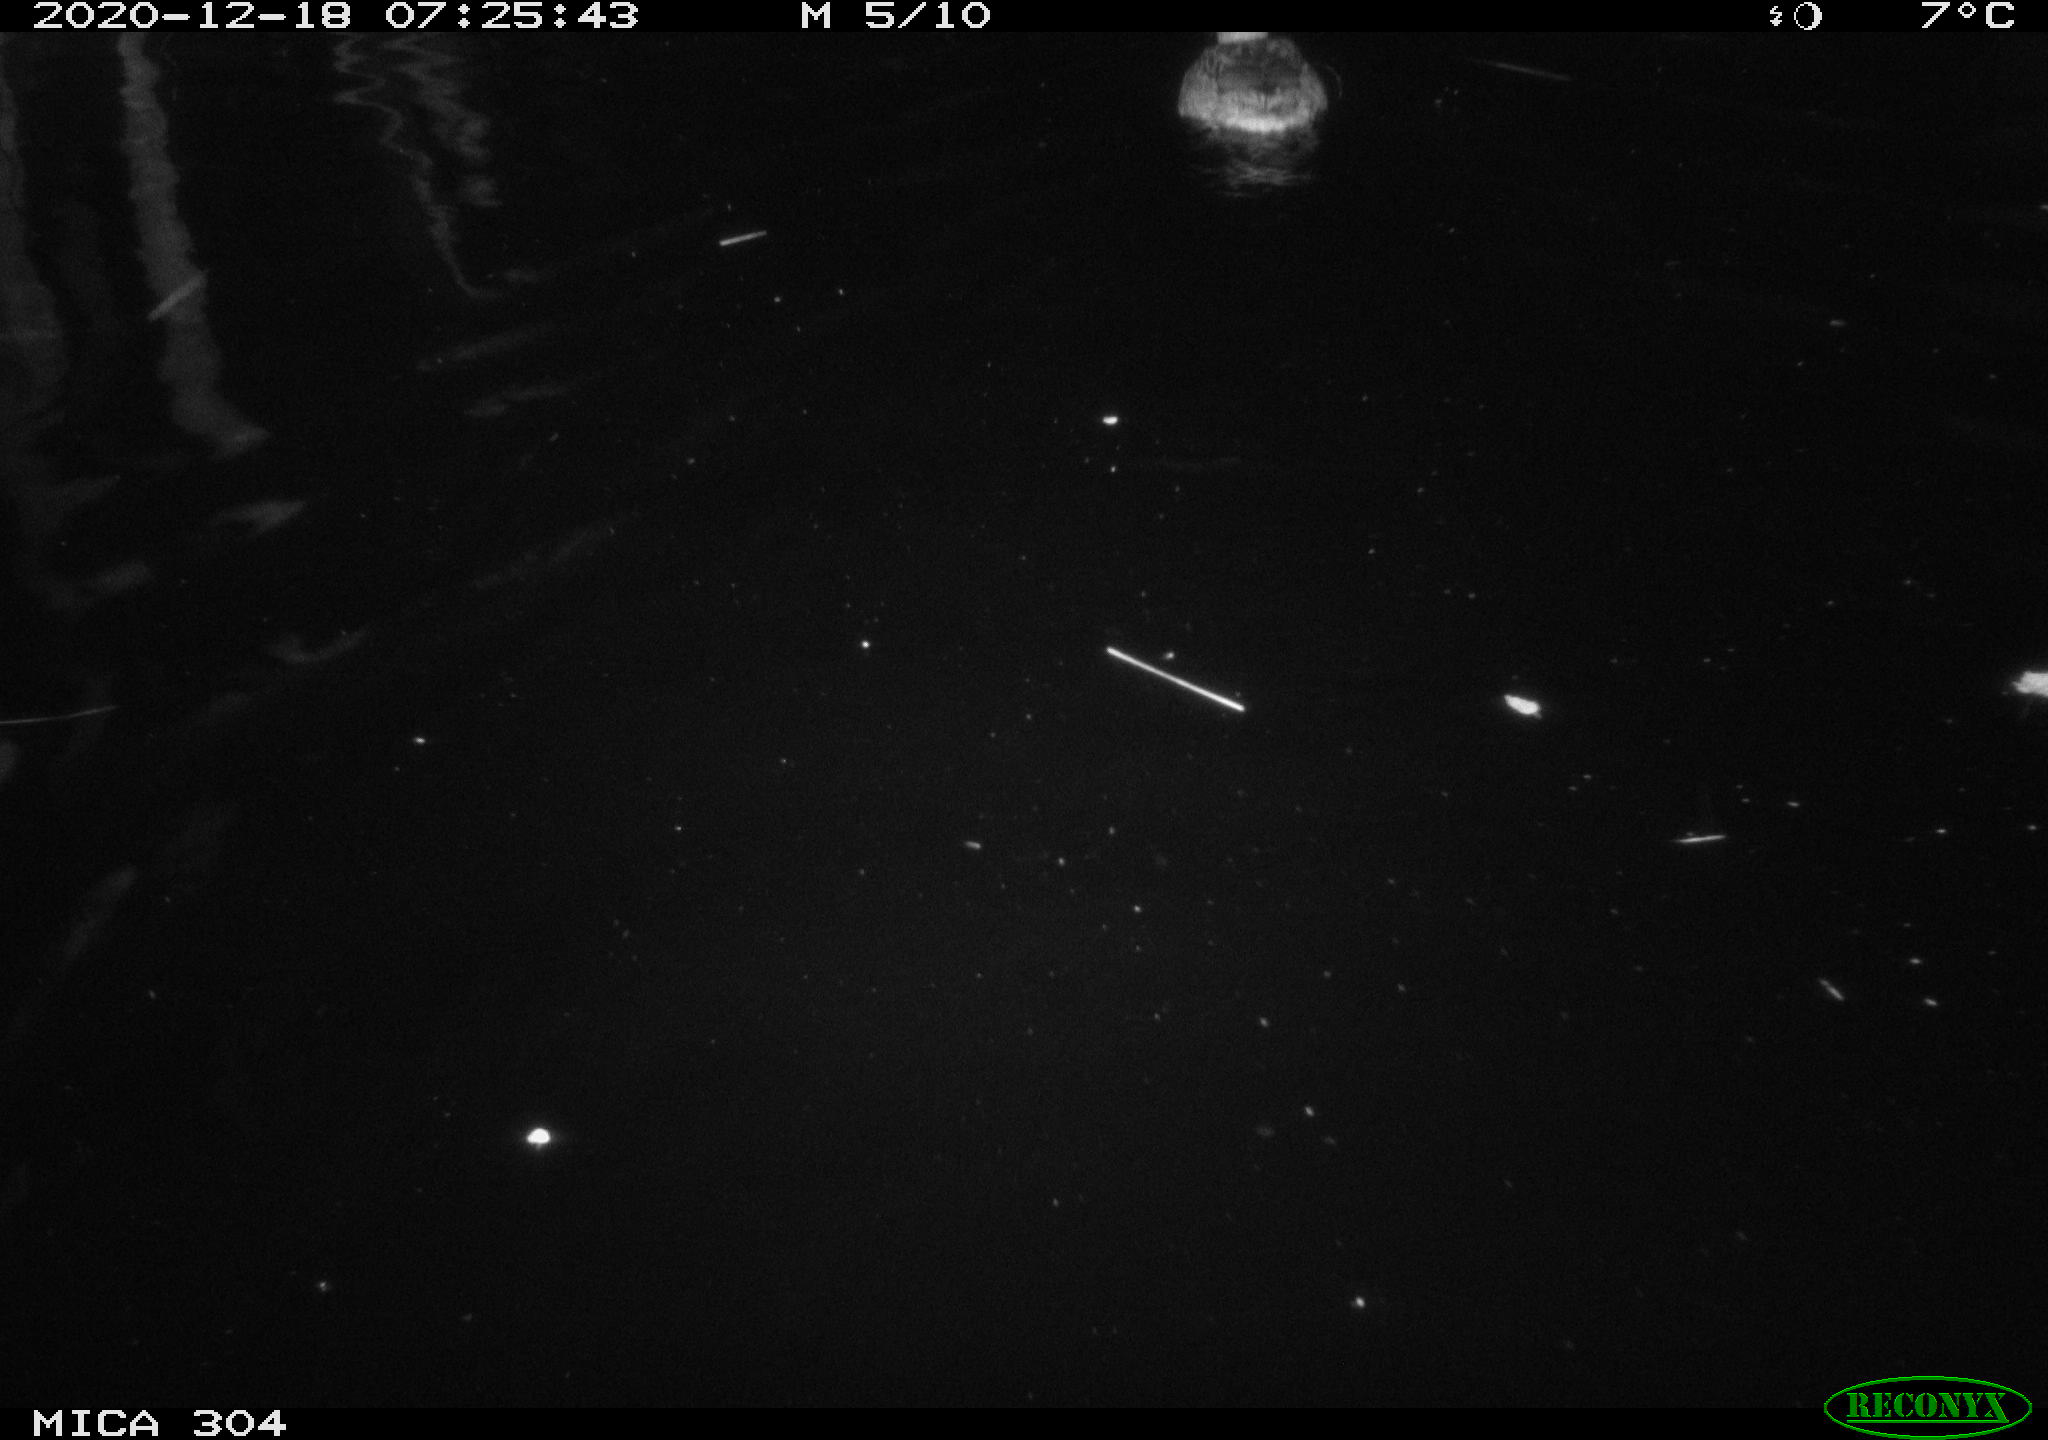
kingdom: Animalia
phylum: Chordata
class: Aves
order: Anseriformes
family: Anatidae
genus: Anas
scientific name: Anas platyrhynchos
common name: Mallard
